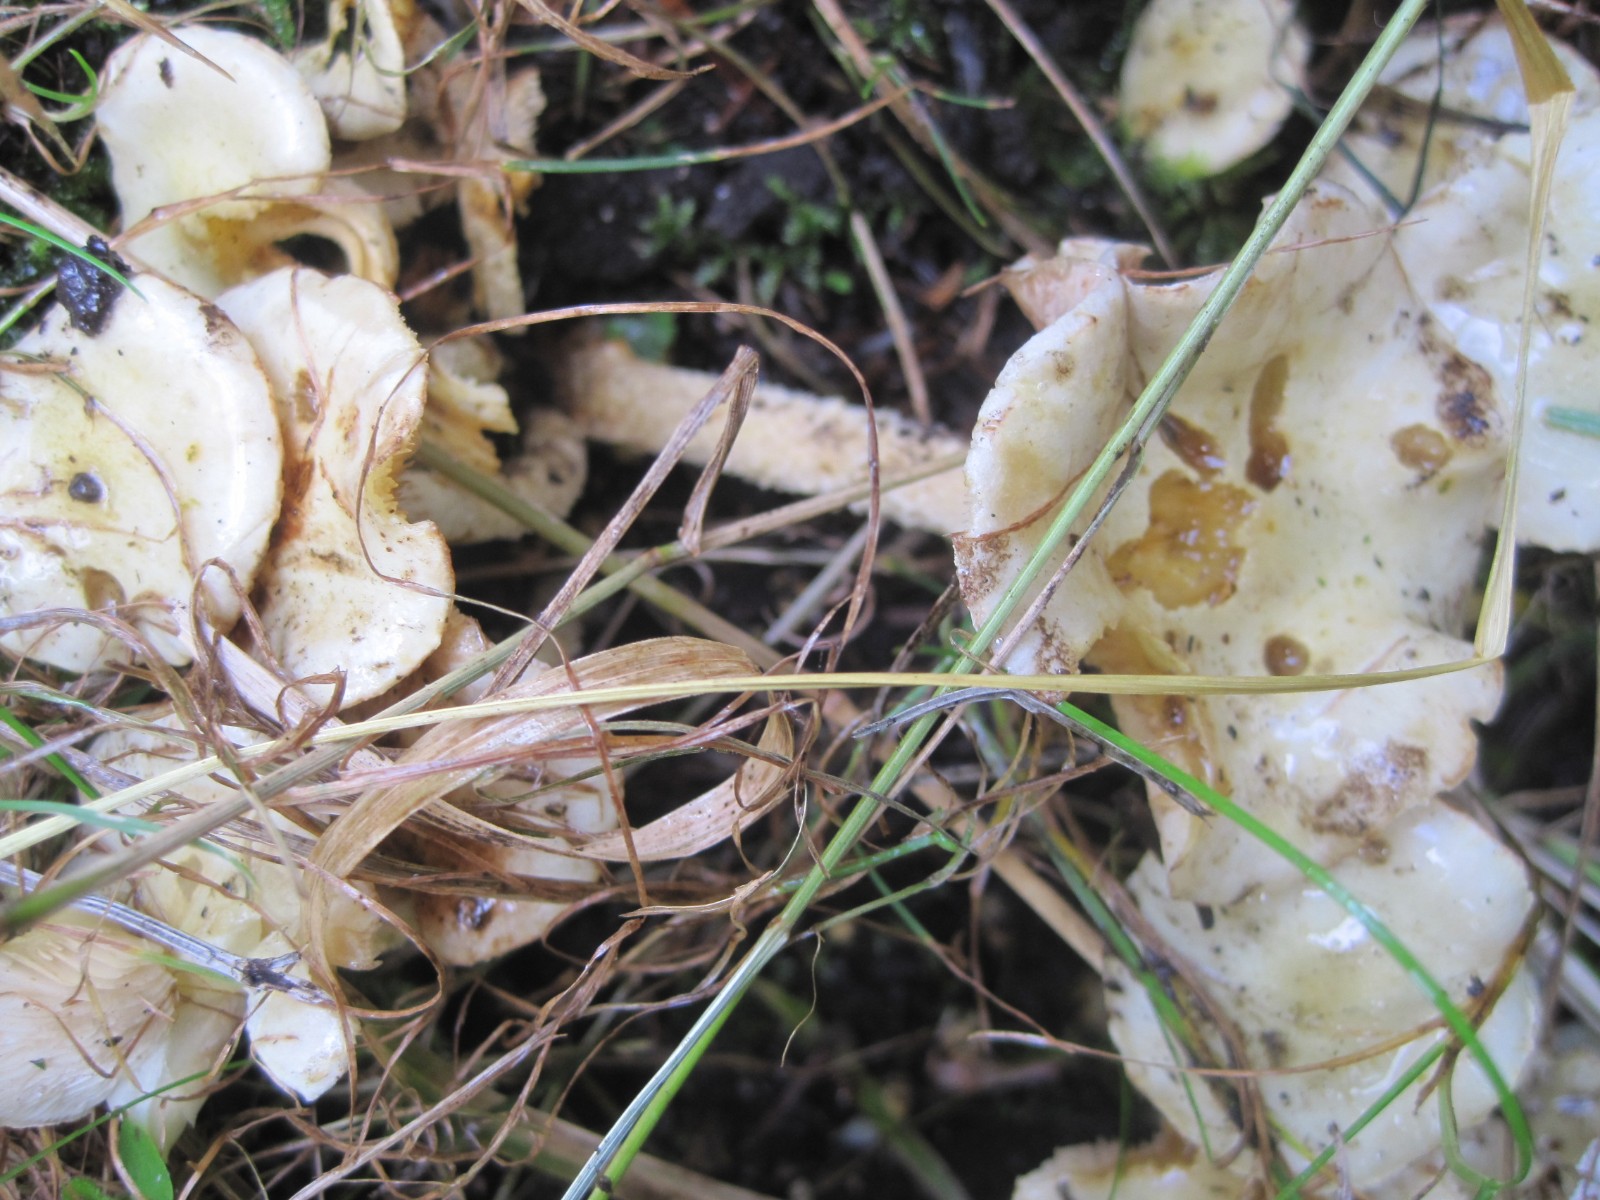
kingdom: Fungi
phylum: Basidiomycota
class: Agaricomycetes
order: Agaricales
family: Strophariaceae
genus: Pholiota
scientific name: Pholiota gummosa
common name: grøngul skælhat
